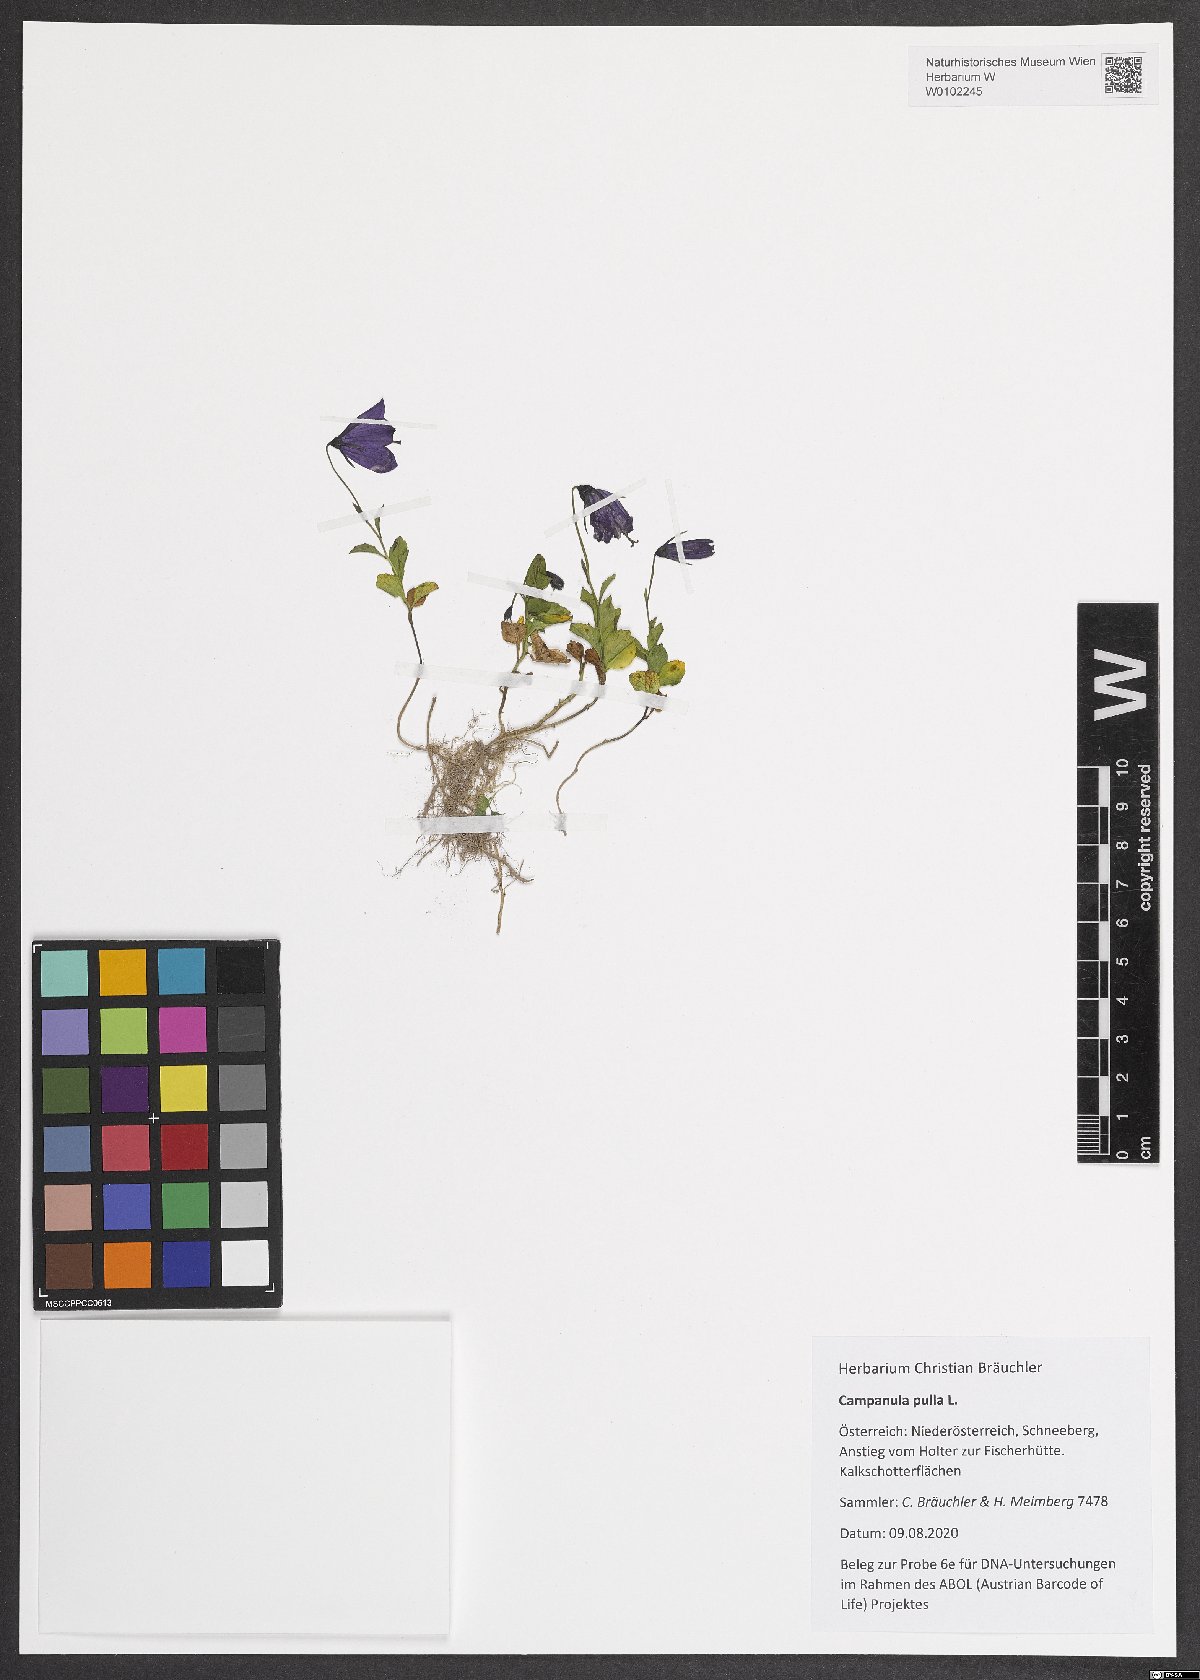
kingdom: Plantae
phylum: Tracheophyta
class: Magnoliopsida
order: Asterales
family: Campanulaceae
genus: Campanula
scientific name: Campanula pulla
